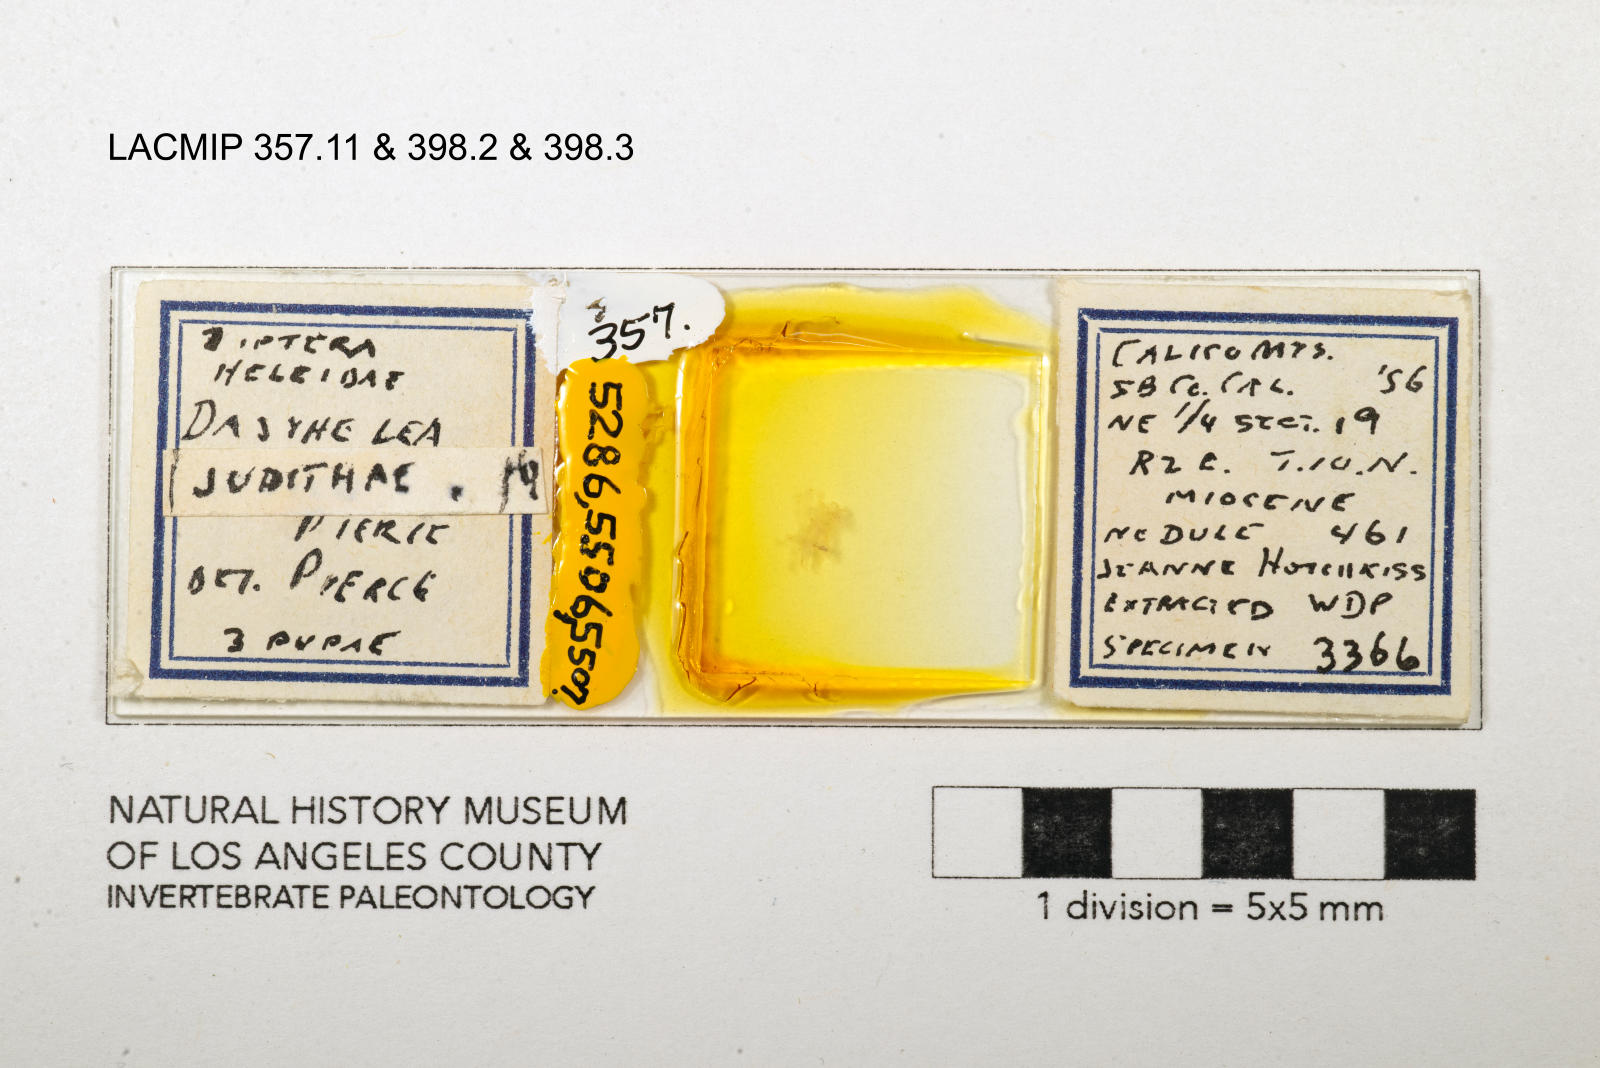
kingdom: Animalia
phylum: Arthropoda
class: Insecta
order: Diptera
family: Ceratopogonidae
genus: Dasyhelea
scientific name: Dasyhelea judithae
